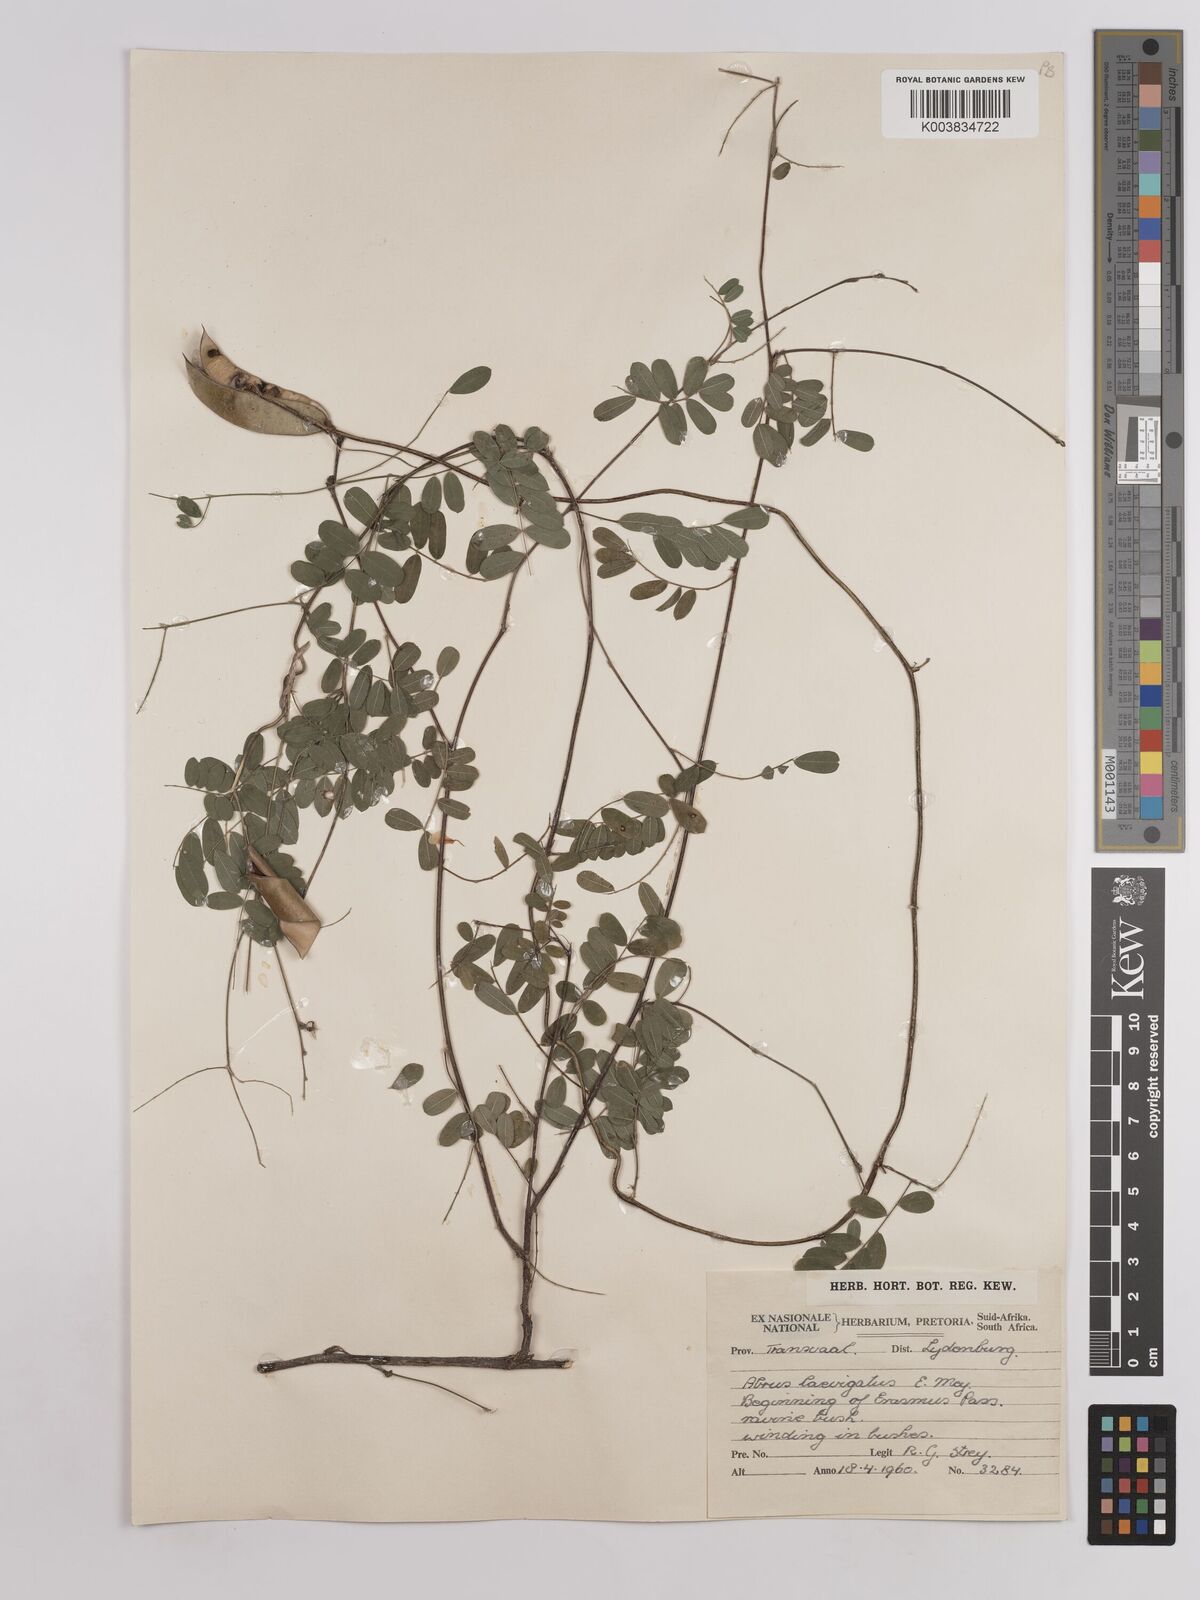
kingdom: Plantae
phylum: Tracheophyta
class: Magnoliopsida
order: Fabales
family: Fabaceae
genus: Abrus
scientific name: Abrus laevigatus
